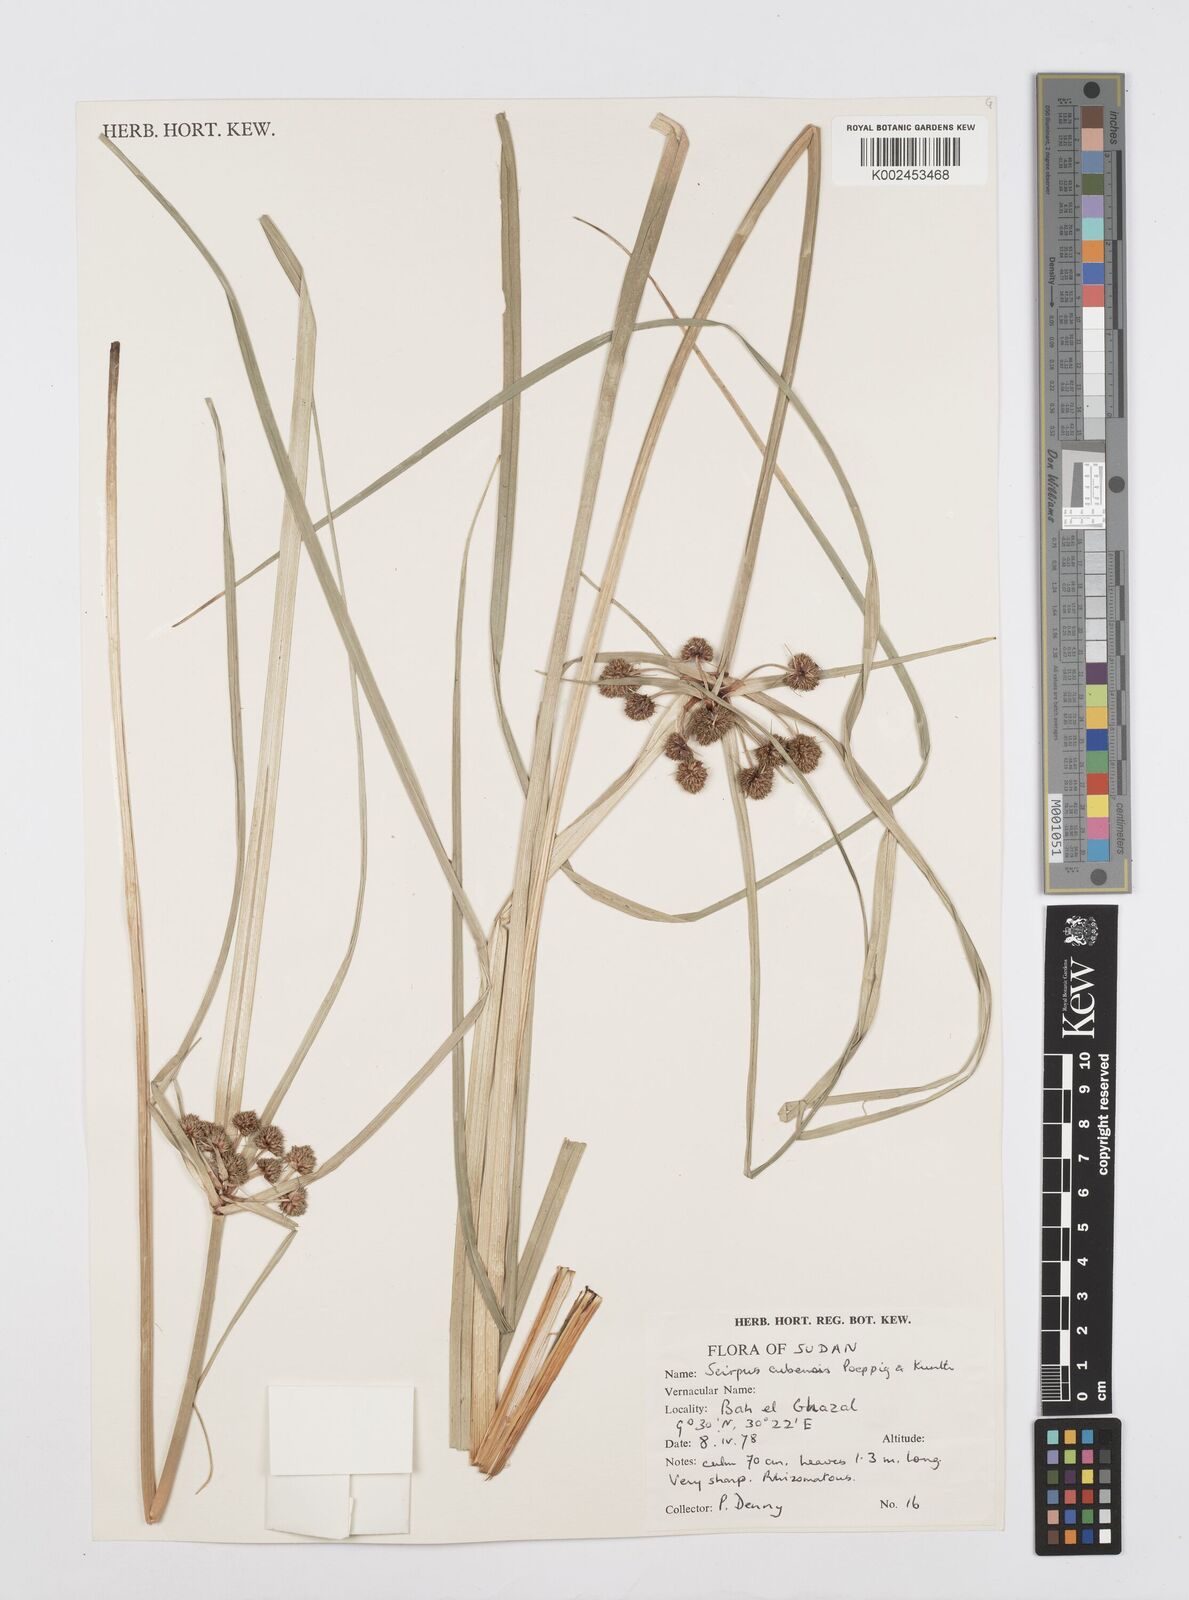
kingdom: Plantae
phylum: Tracheophyta
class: Liliopsida
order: Poales
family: Cyperaceae
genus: Cyperus
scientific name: Cyperus elegans
